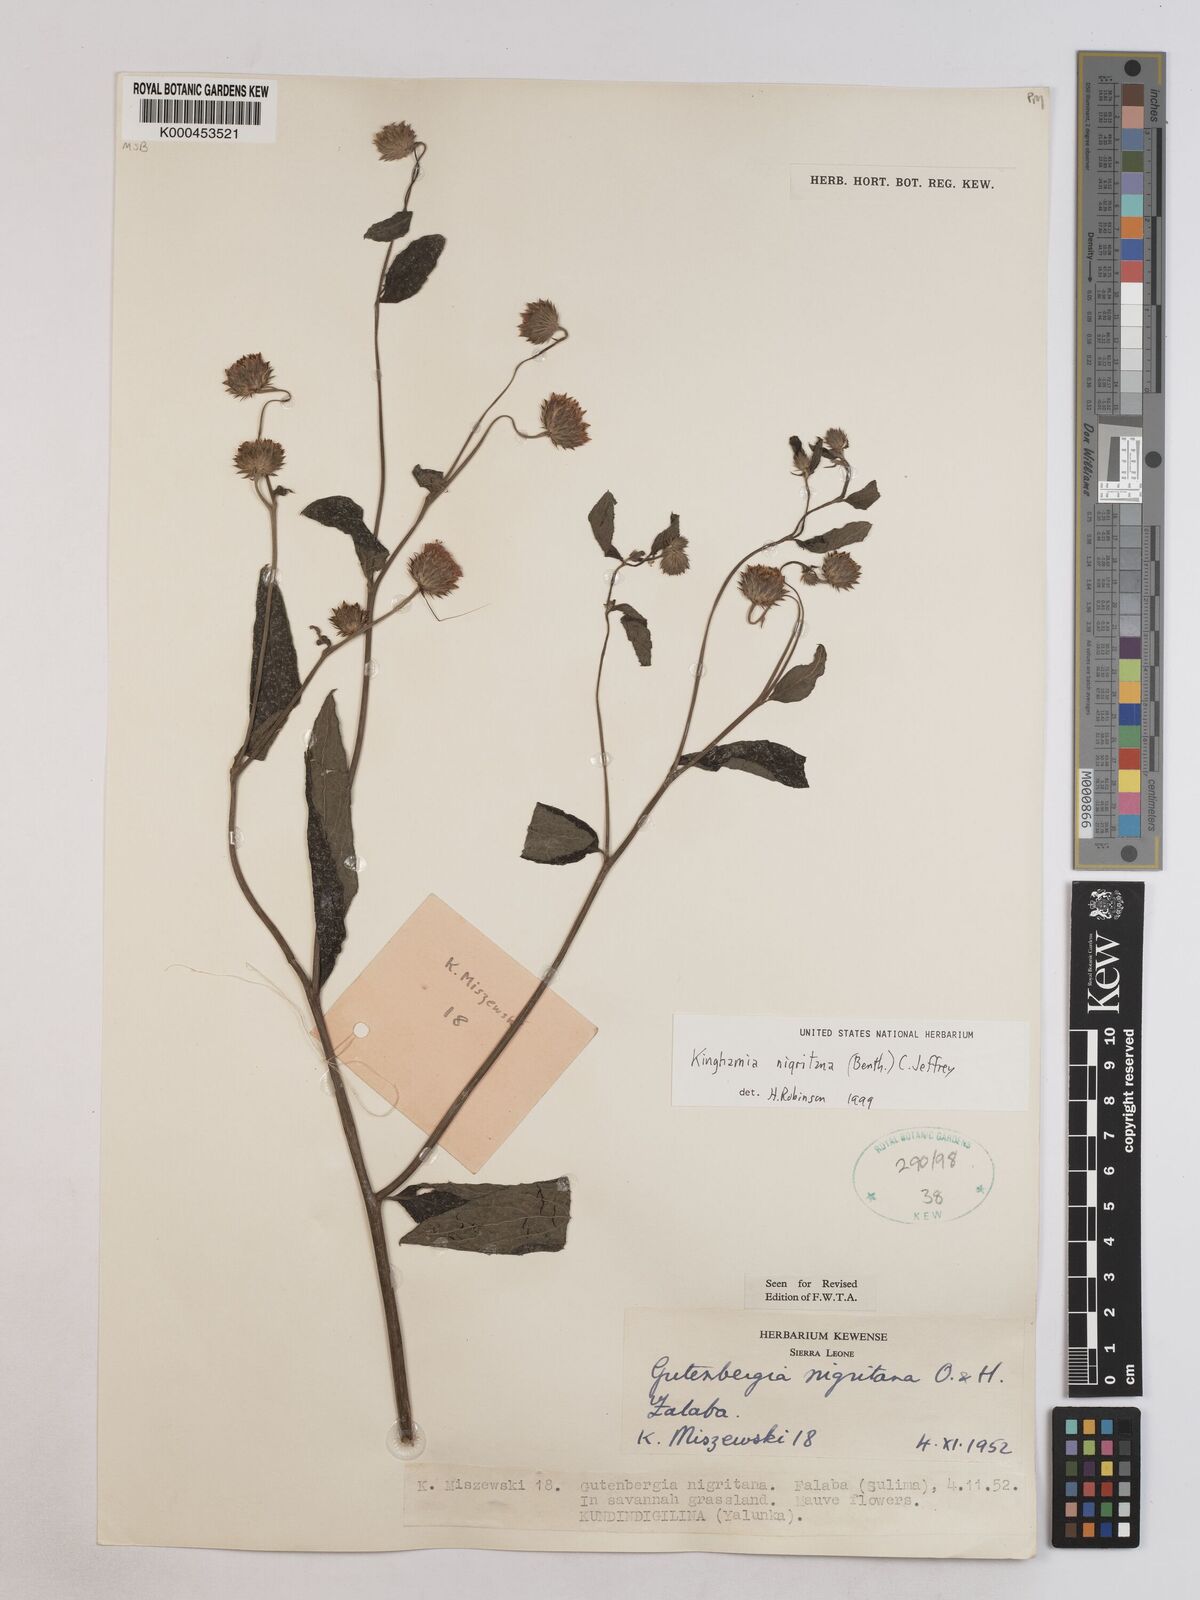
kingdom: Plantae
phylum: Tracheophyta
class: Magnoliopsida
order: Asterales
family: Asteraceae
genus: Kinghamia
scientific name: Kinghamia nigritana
